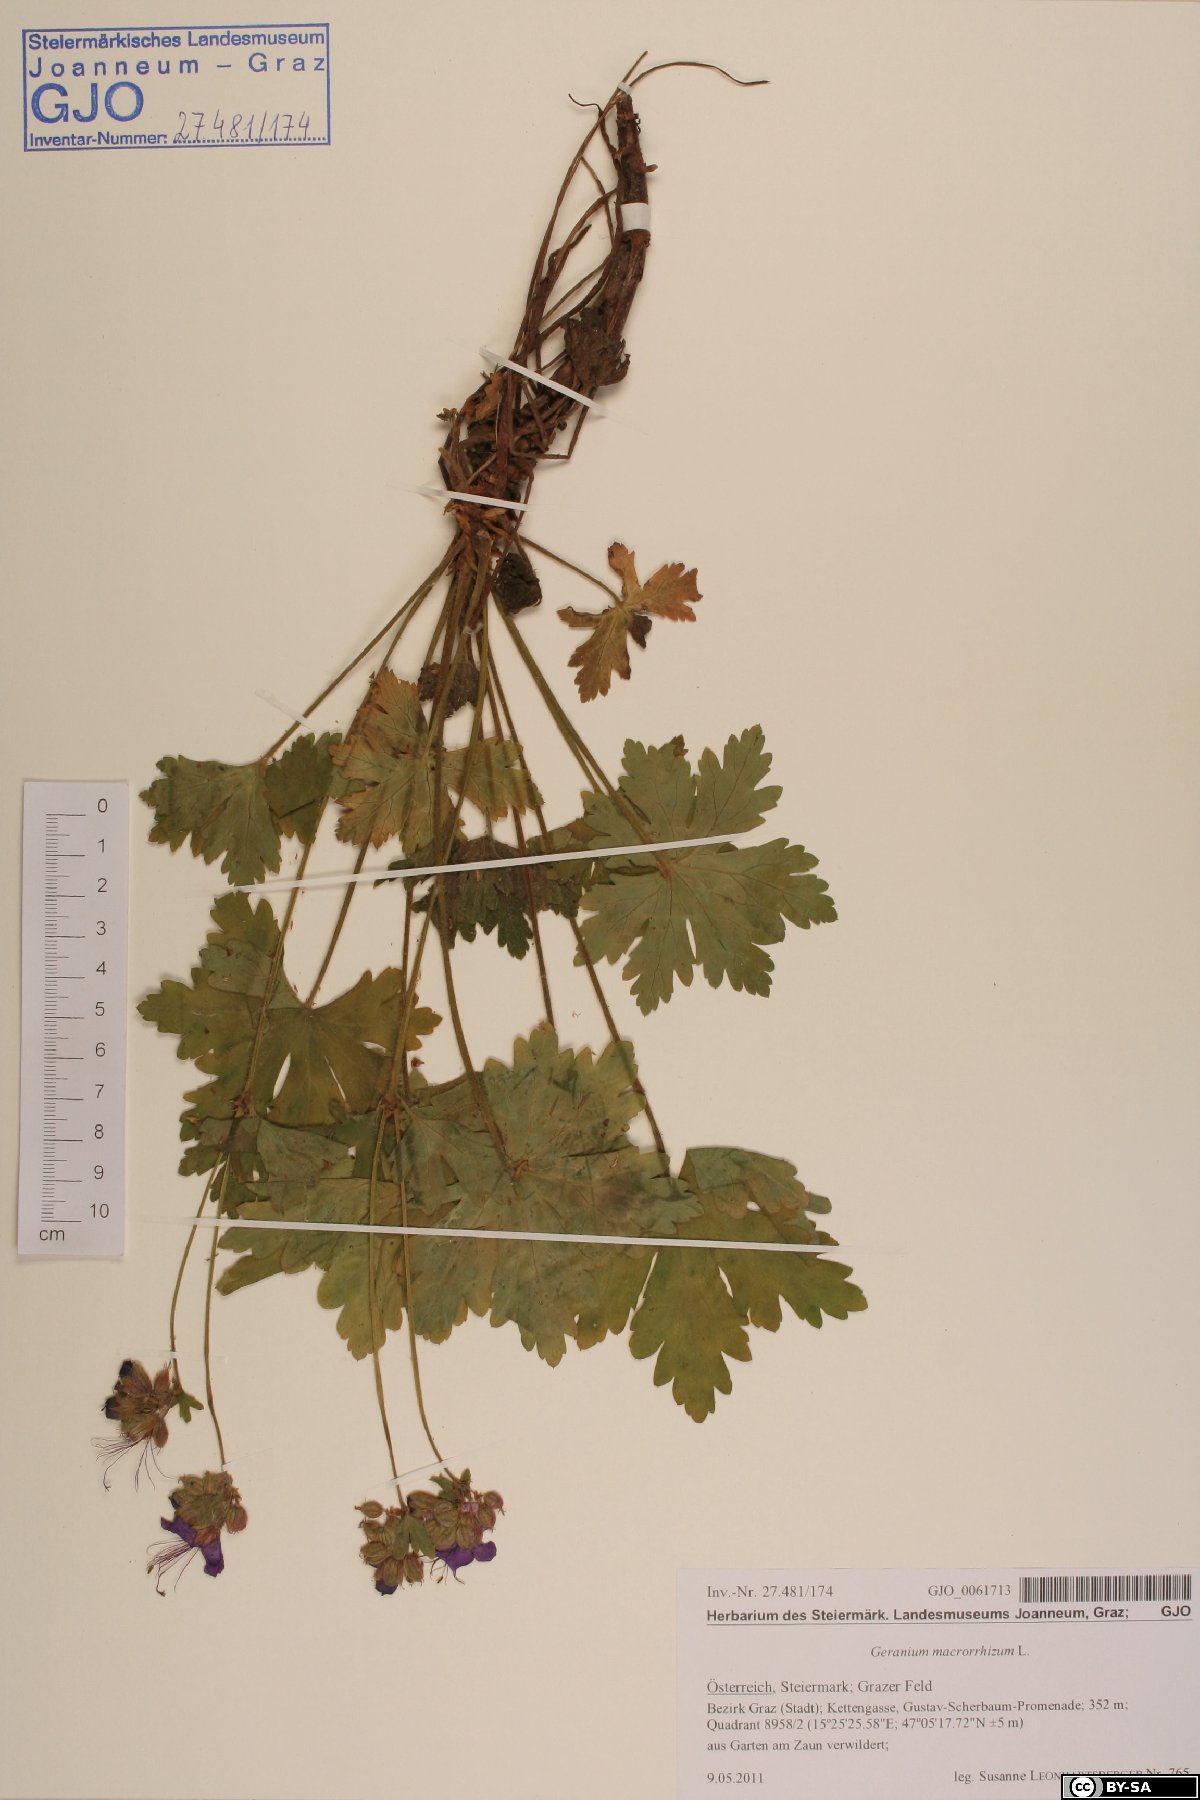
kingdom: Plantae
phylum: Tracheophyta
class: Magnoliopsida
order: Geraniales
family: Geraniaceae
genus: Geranium
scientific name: Geranium macrorrhizum
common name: Rock crane's-bill
